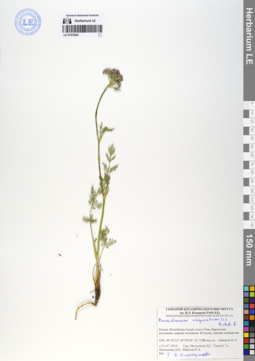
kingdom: Plantae
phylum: Tracheophyta
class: Magnoliopsida
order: Apiales
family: Apiaceae
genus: Peucedanum
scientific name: Peucedanum vaginatum
